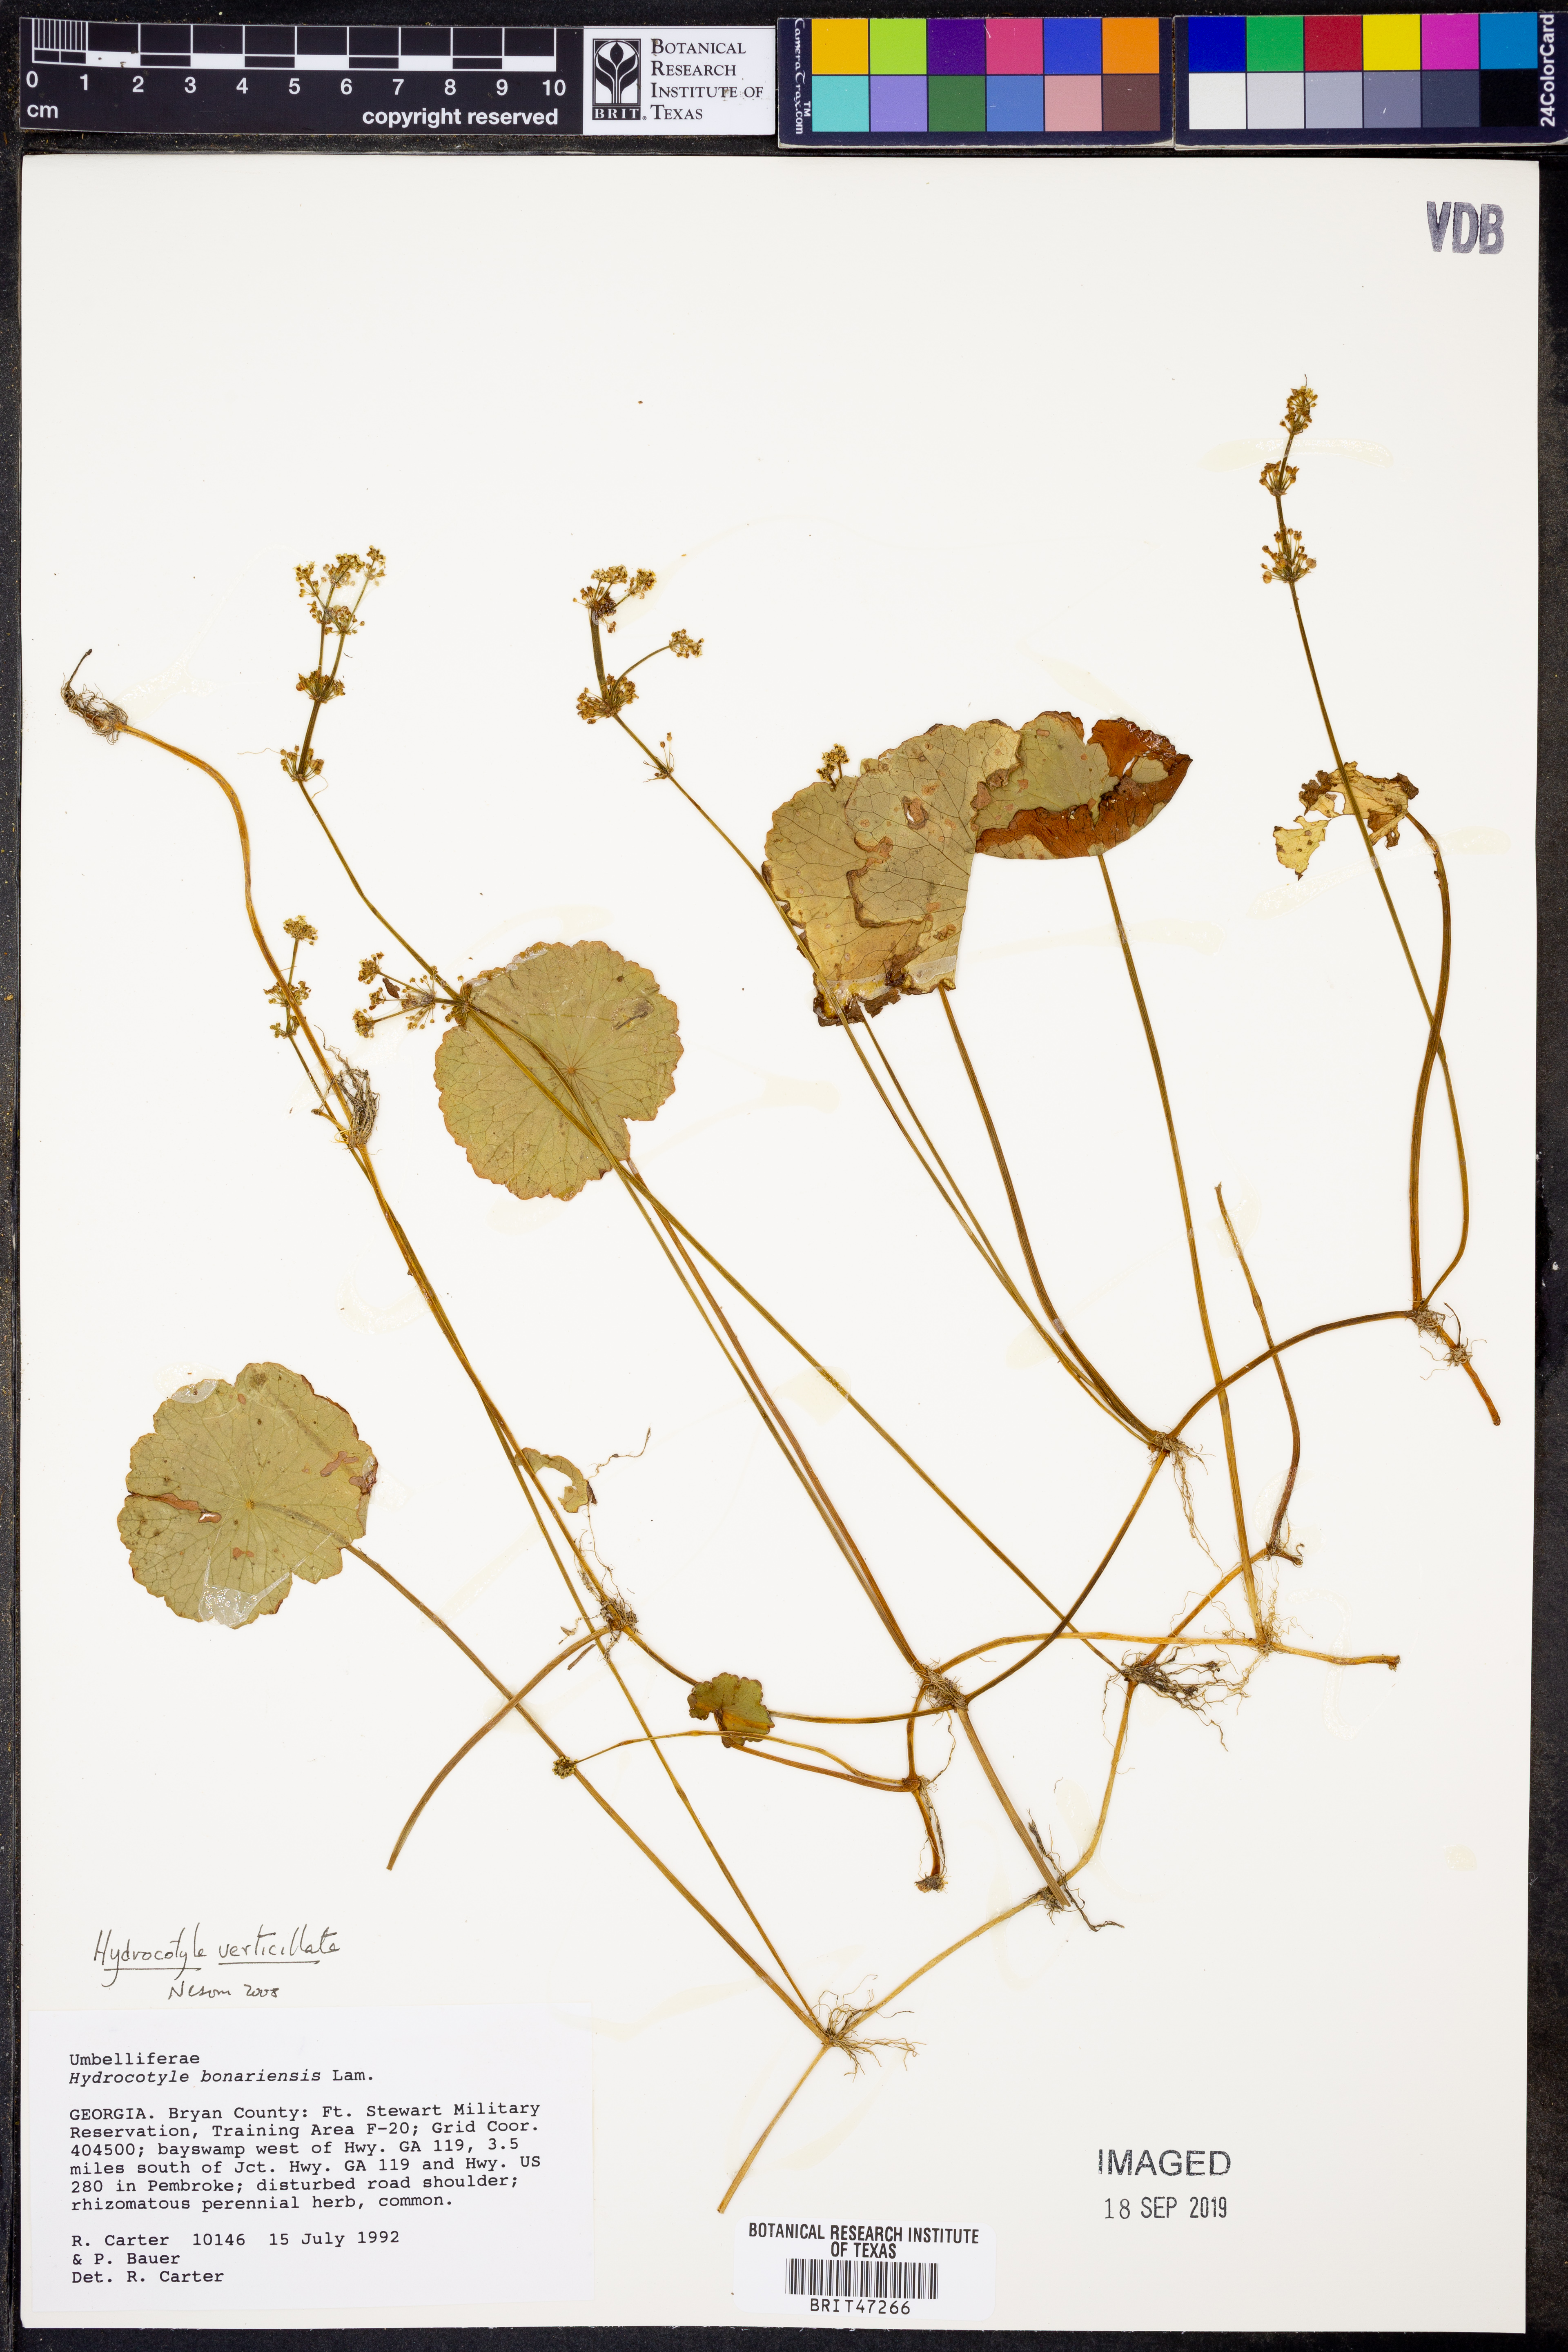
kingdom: Plantae
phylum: Tracheophyta
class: Magnoliopsida
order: Apiales
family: Araliaceae
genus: Hydrocotyle
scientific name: Hydrocotyle verticillata
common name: Whorled marshpennywort
